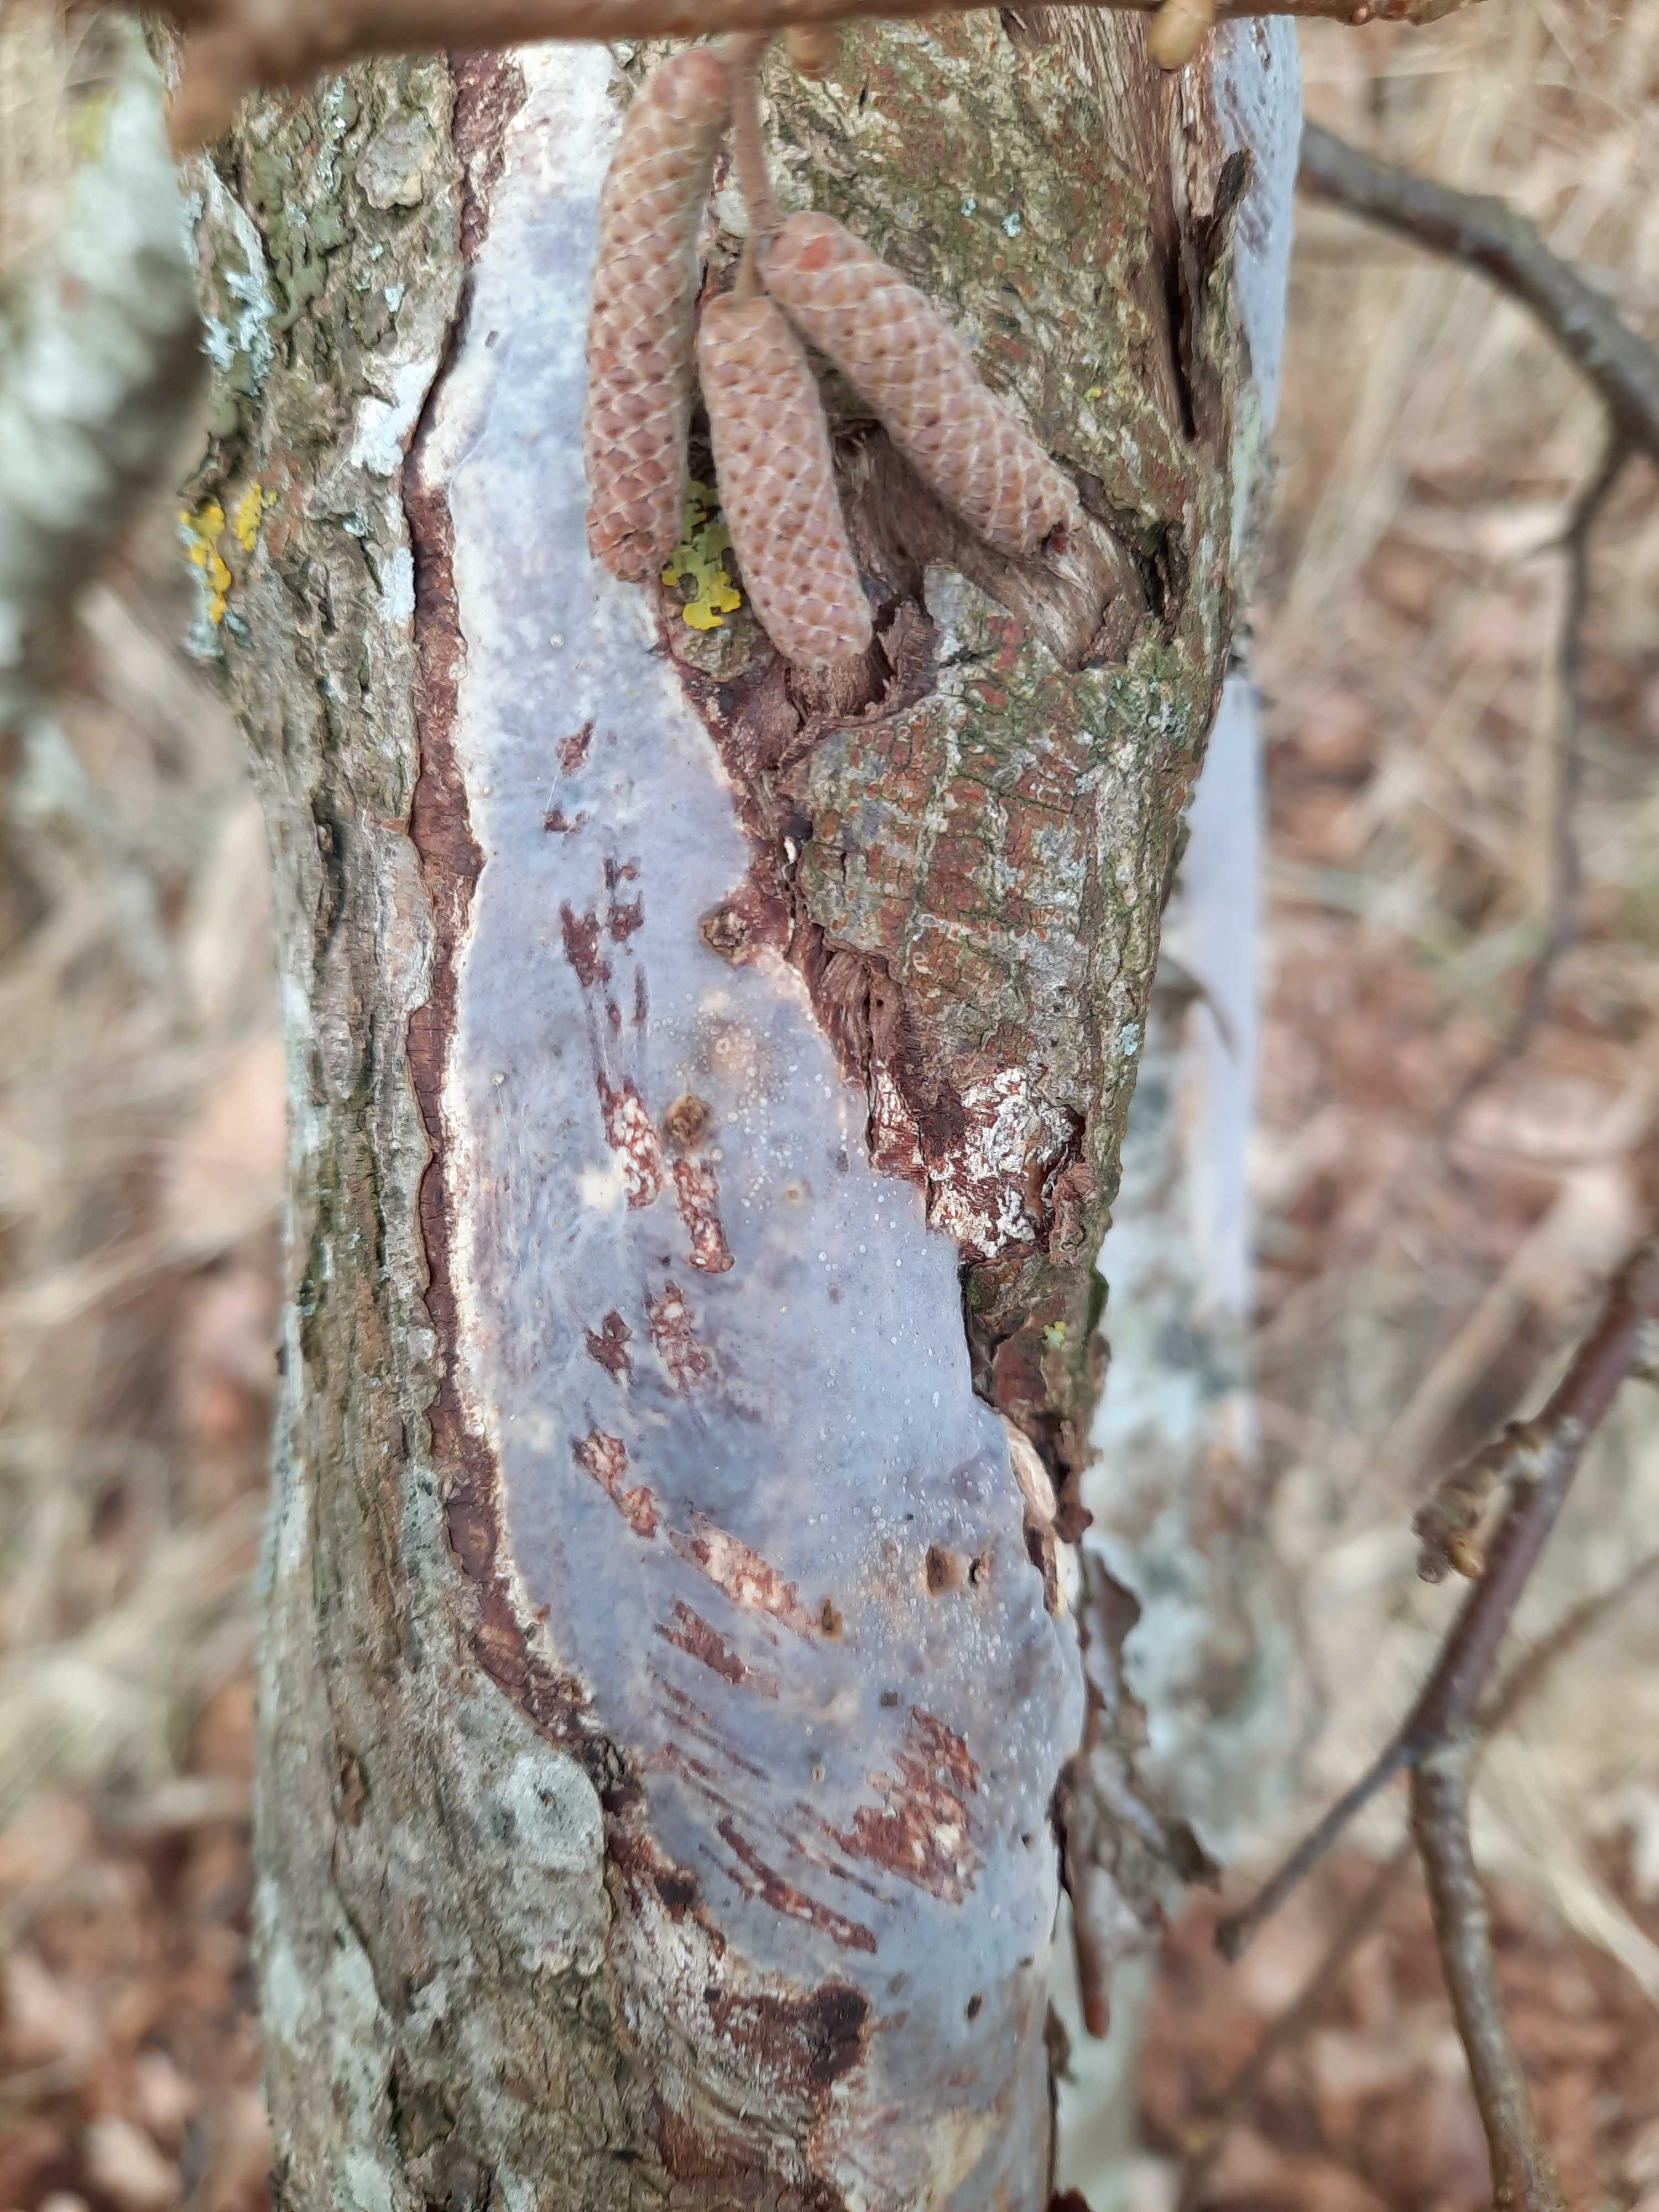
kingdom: Fungi
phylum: Basidiomycota
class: Agaricomycetes
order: Corticiales
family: Vuilleminiaceae
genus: Vuilleminia
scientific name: Vuilleminia coryli
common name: hassel-barksprænger
